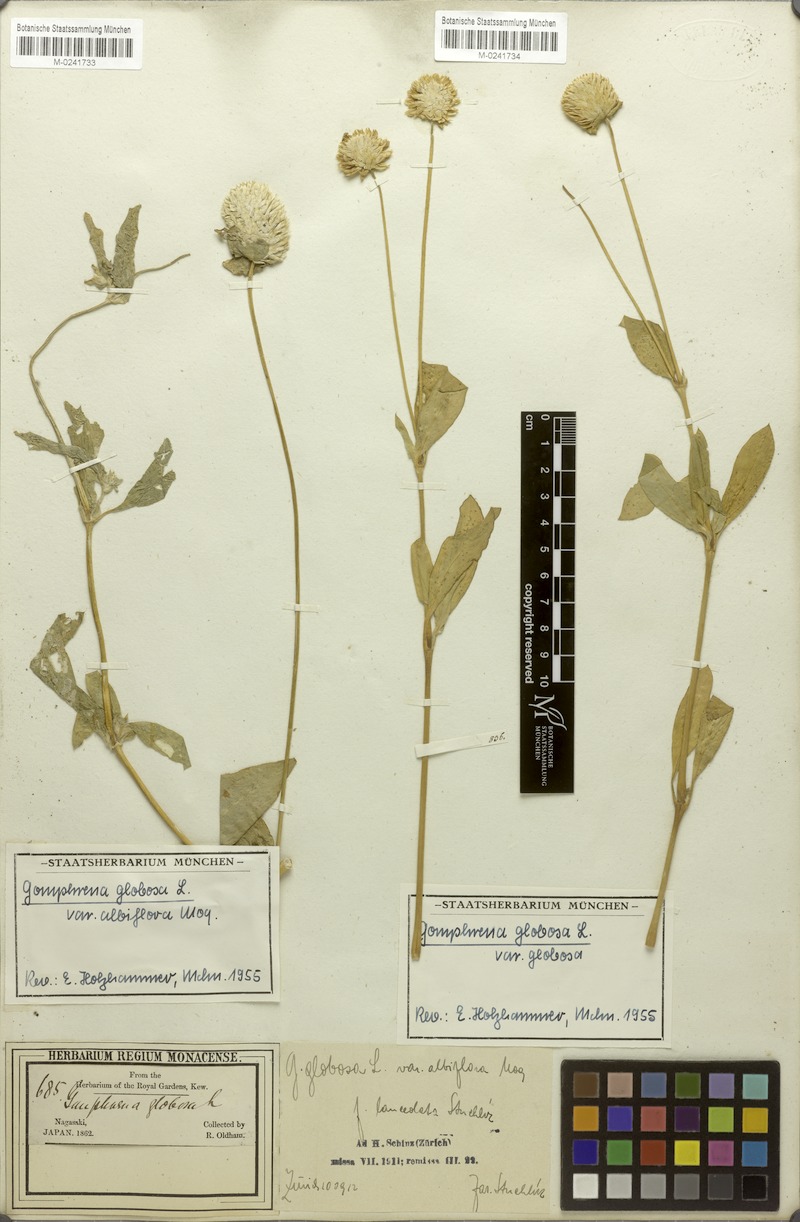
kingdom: Plantae
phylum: Tracheophyta
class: Magnoliopsida
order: Caryophyllales
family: Amaranthaceae
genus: Gomphrena
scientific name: Gomphrena globosa
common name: Common globe amaranth
